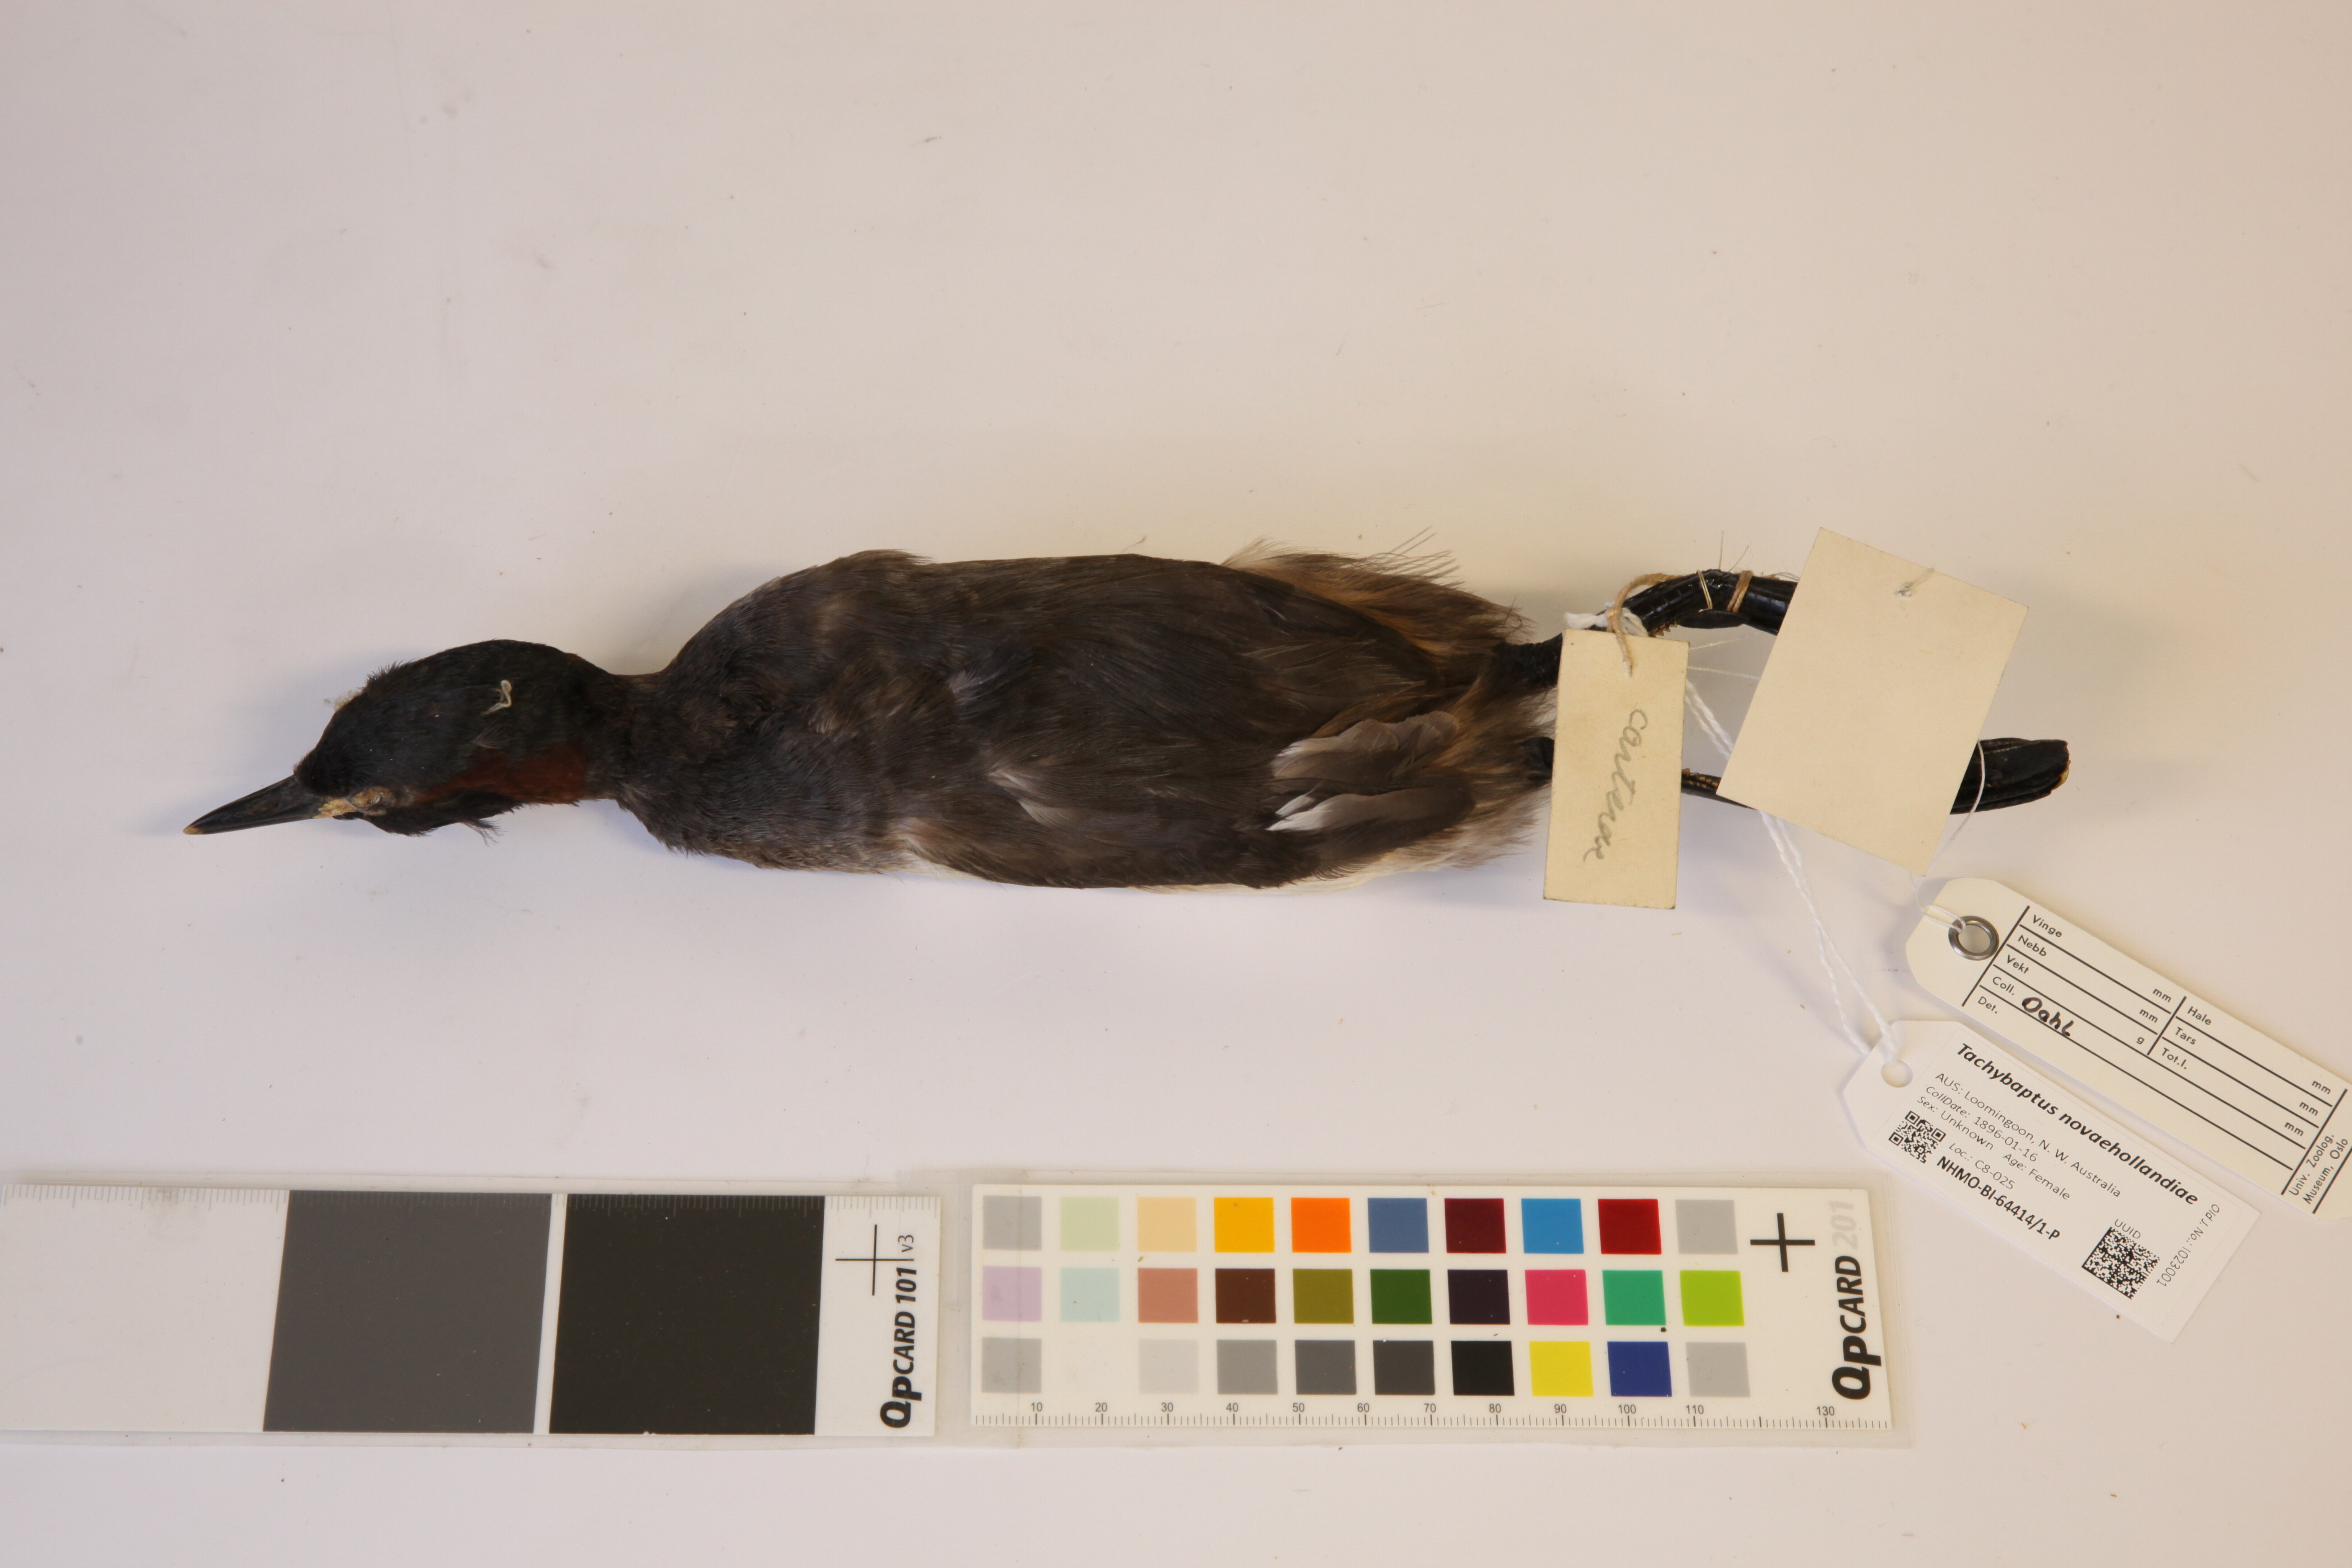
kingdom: Animalia
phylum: Chordata
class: Aves
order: Podicipediformes
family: Podicipedidae
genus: Tachybaptus
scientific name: Tachybaptus novaehollandiae
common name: Australasian grebe
